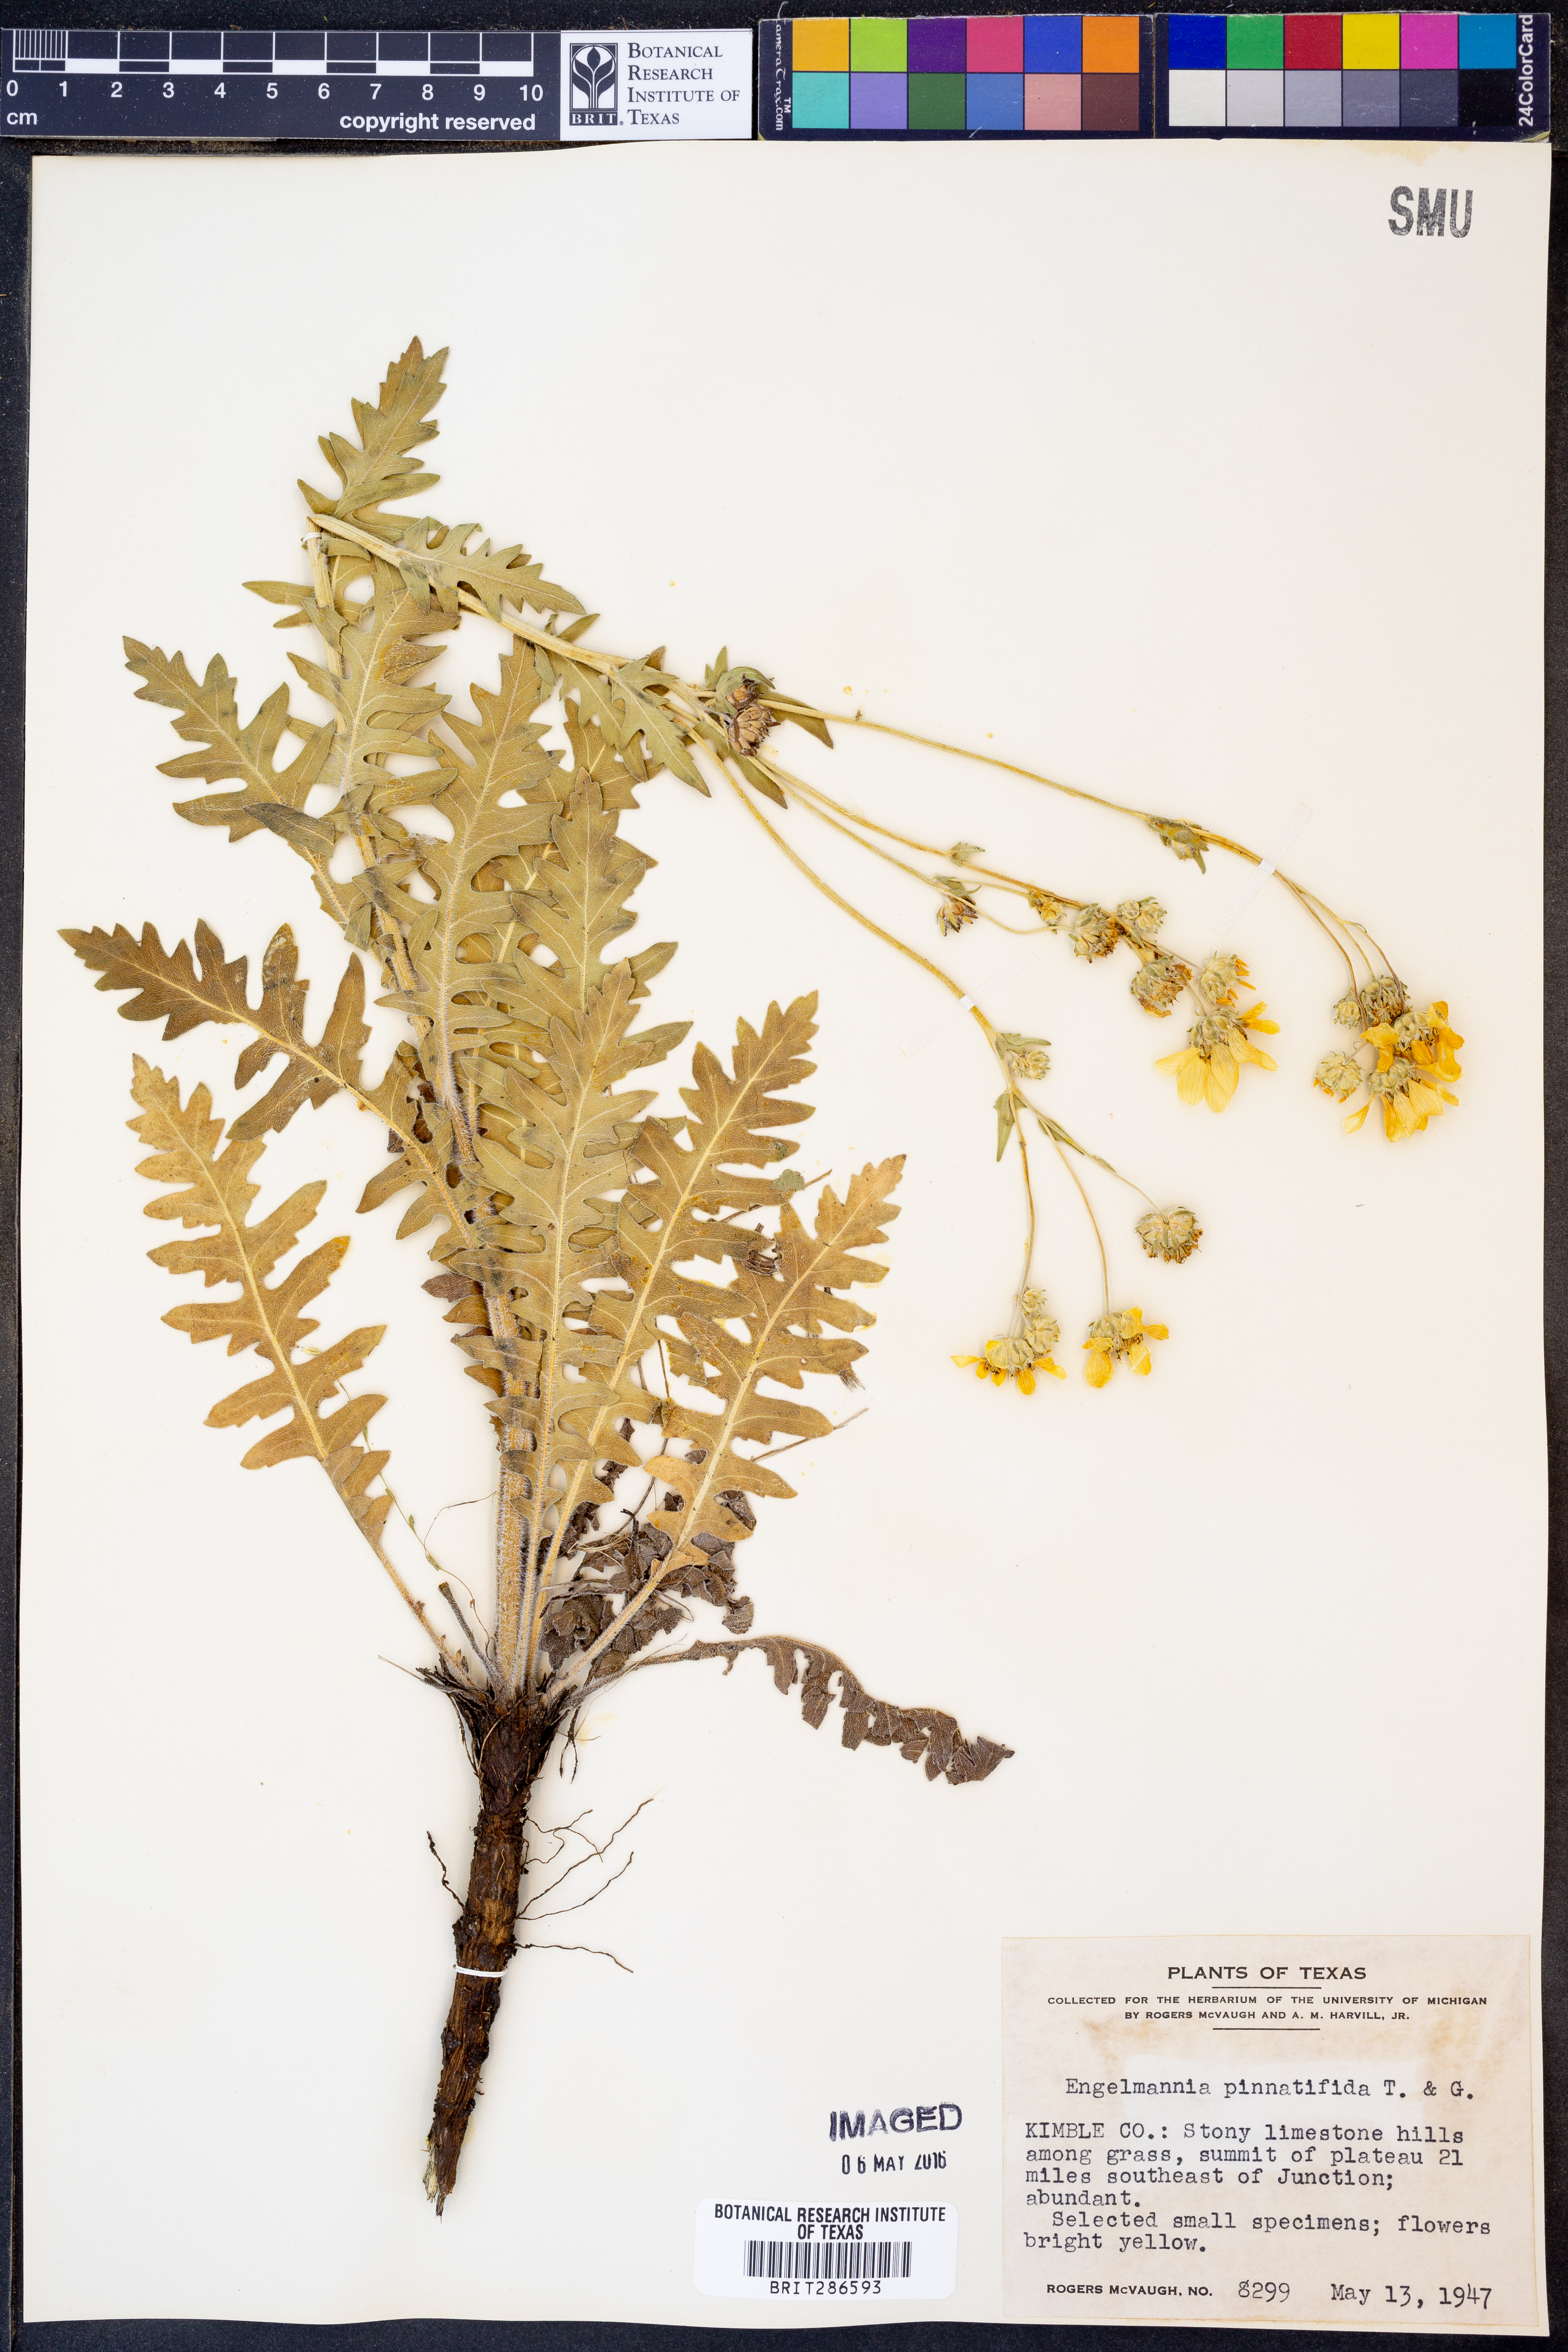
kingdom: Plantae
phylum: Tracheophyta
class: Magnoliopsida
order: Asterales
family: Asteraceae
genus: Engelmannia
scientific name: Engelmannia peristenia
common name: Engelmann's daisy
